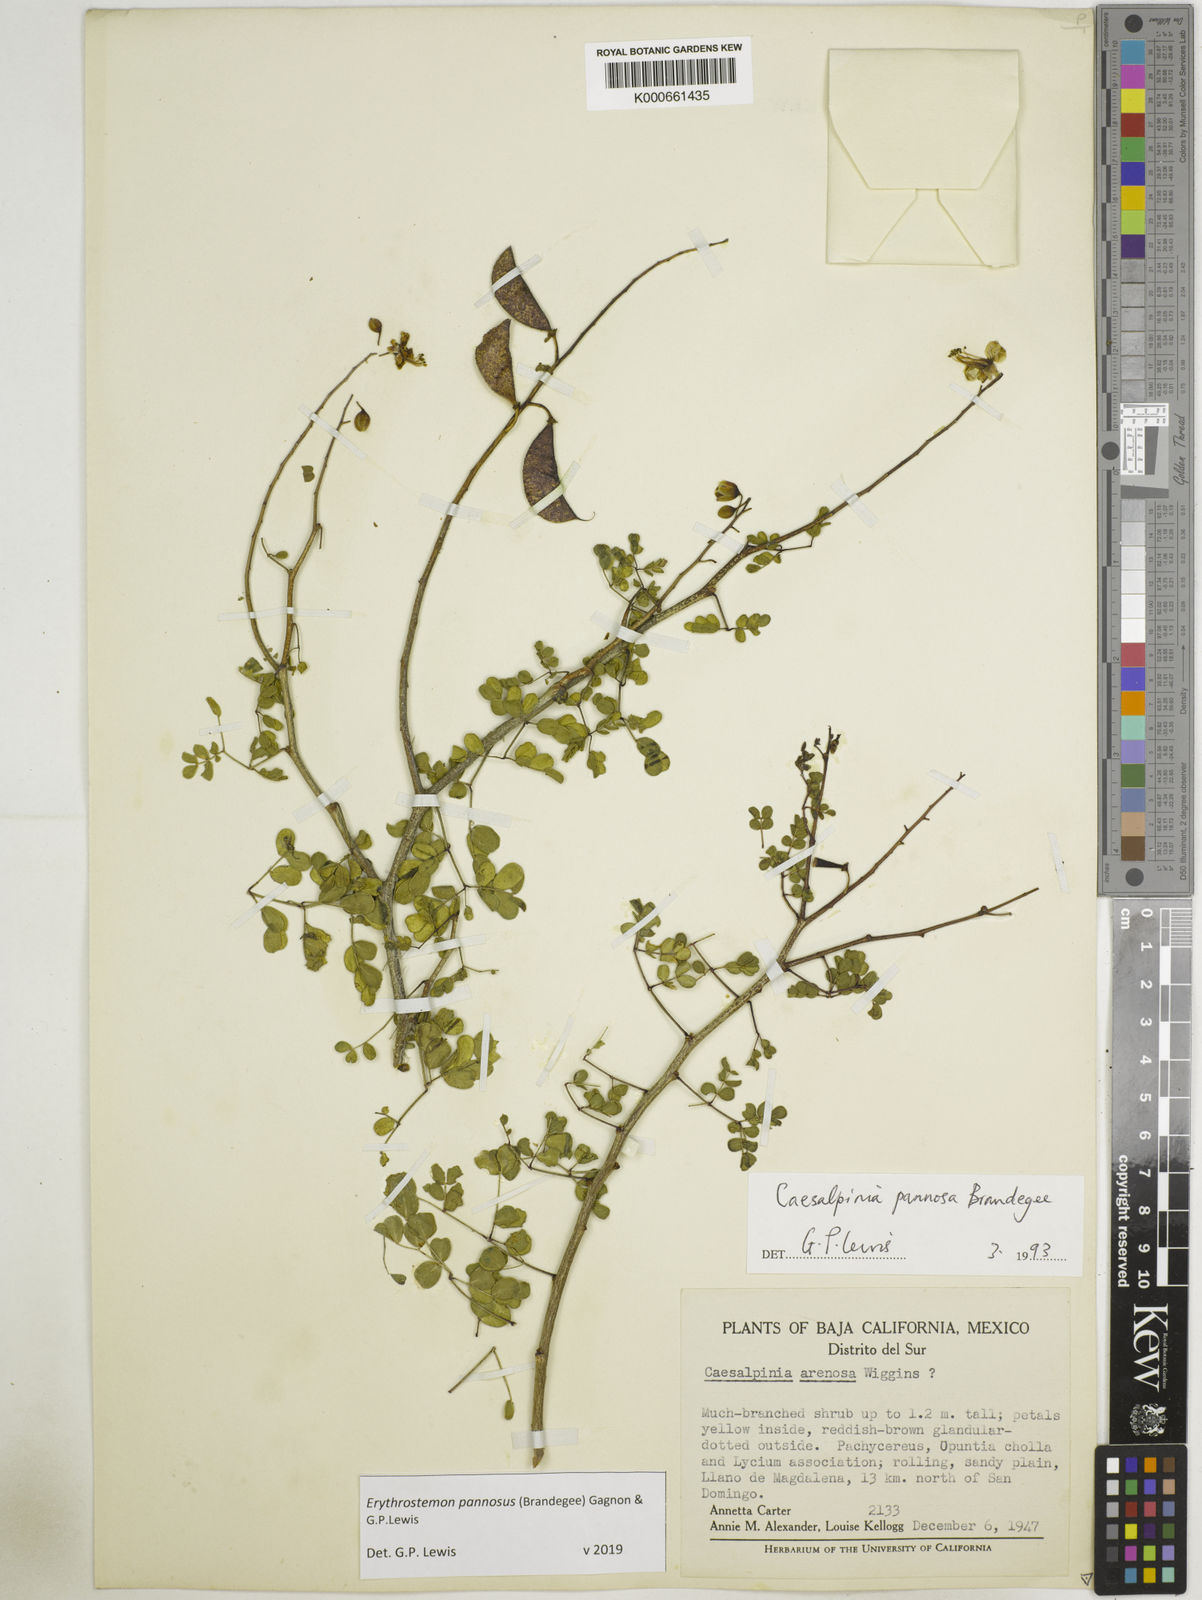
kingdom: Plantae
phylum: Tracheophyta
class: Magnoliopsida
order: Fabales
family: Fabaceae
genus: Erythrostemon
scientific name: Erythrostemon pannosus
